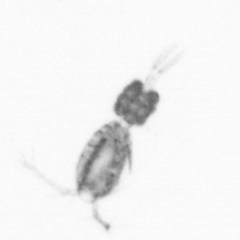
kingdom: Animalia
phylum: Arthropoda
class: Copepoda
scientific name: Copepoda
